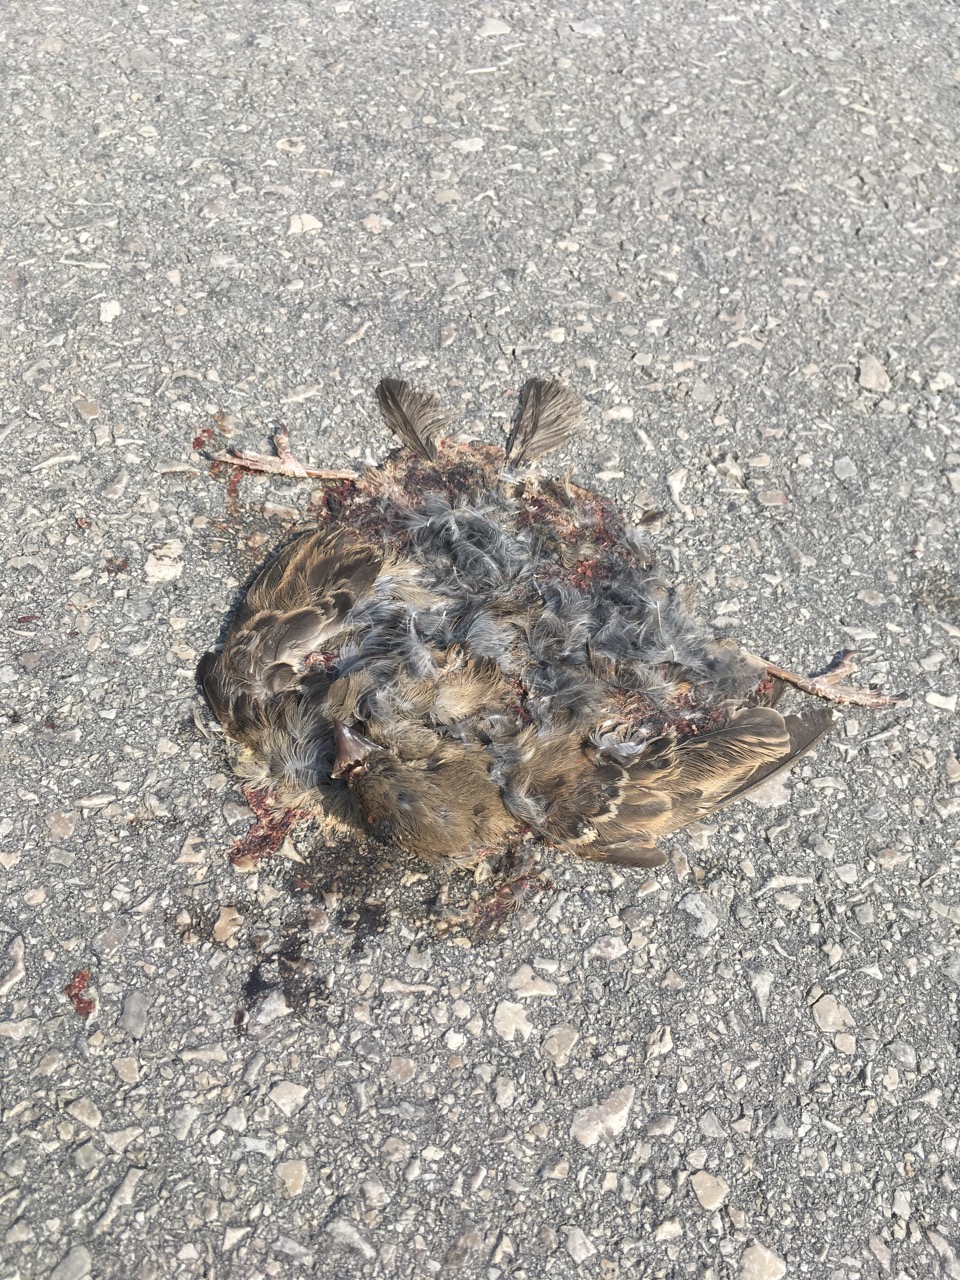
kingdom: Animalia
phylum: Chordata
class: Aves
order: Passeriformes
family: Passeridae
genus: Passer
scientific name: Passer domesticus
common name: House sparrow
